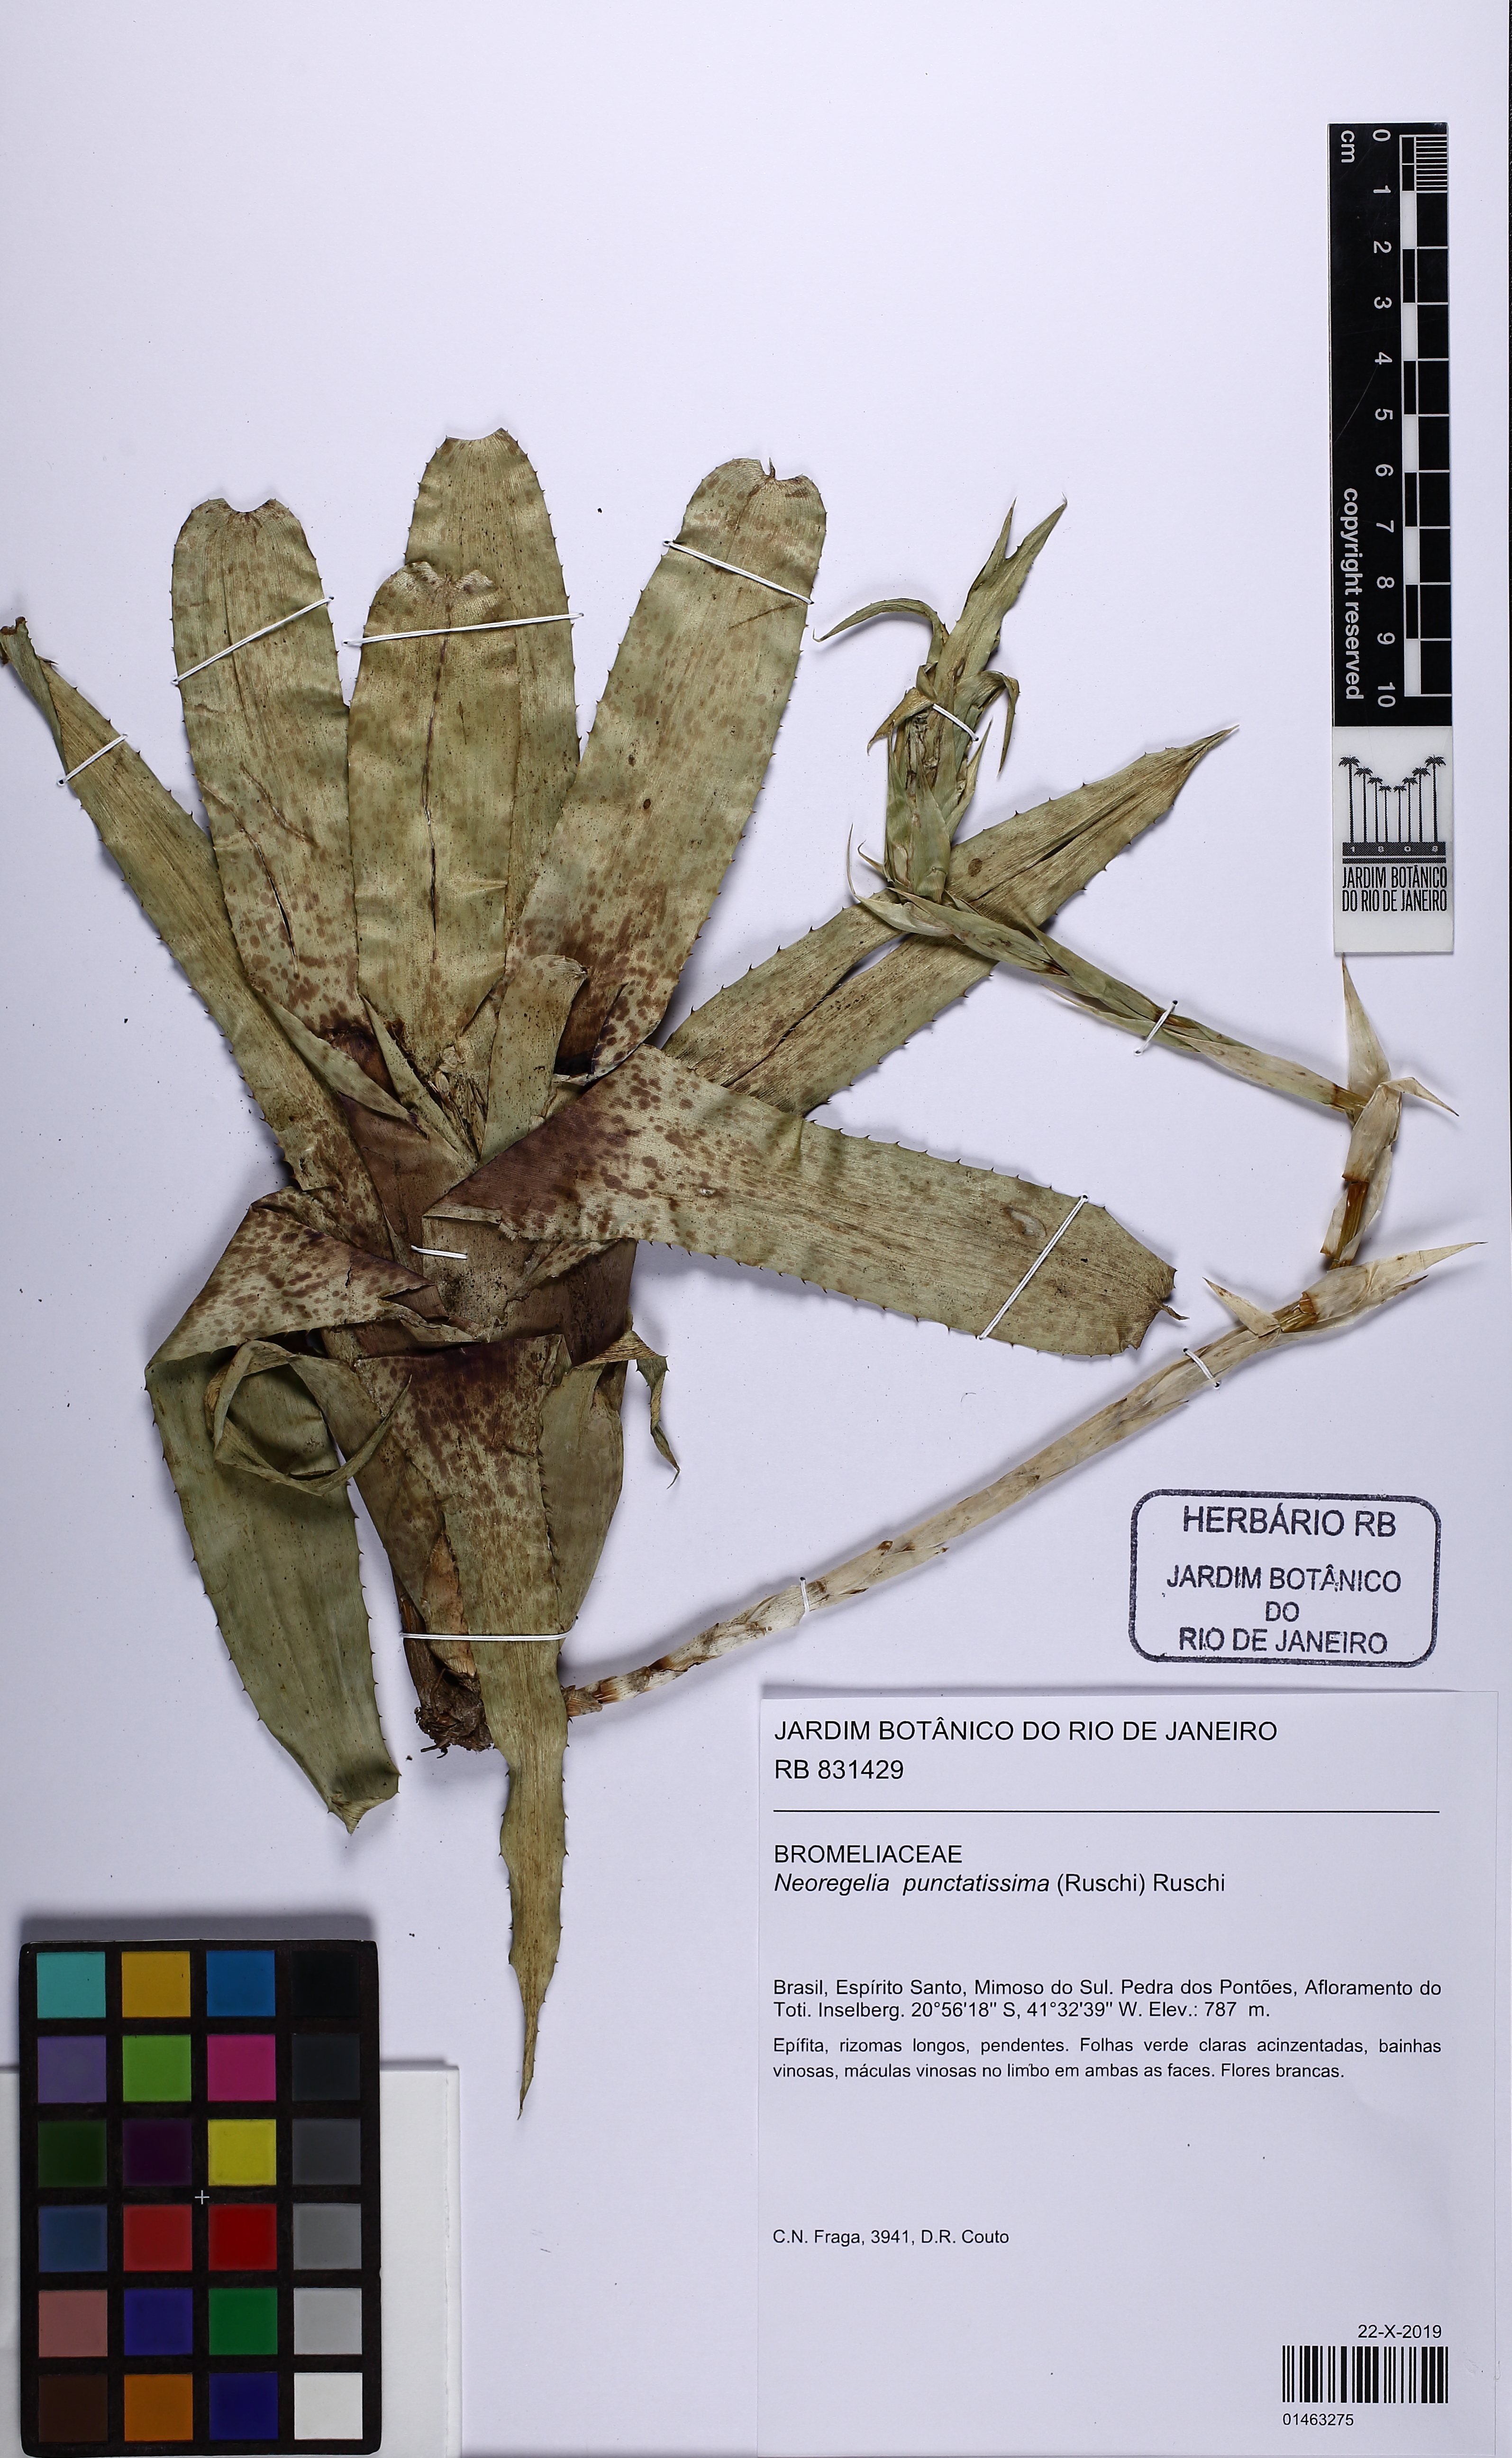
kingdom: Plantae
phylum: Tracheophyta
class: Liliopsida
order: Poales
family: Bromeliaceae
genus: Neoregelia
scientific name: Neoregelia punctatissima
